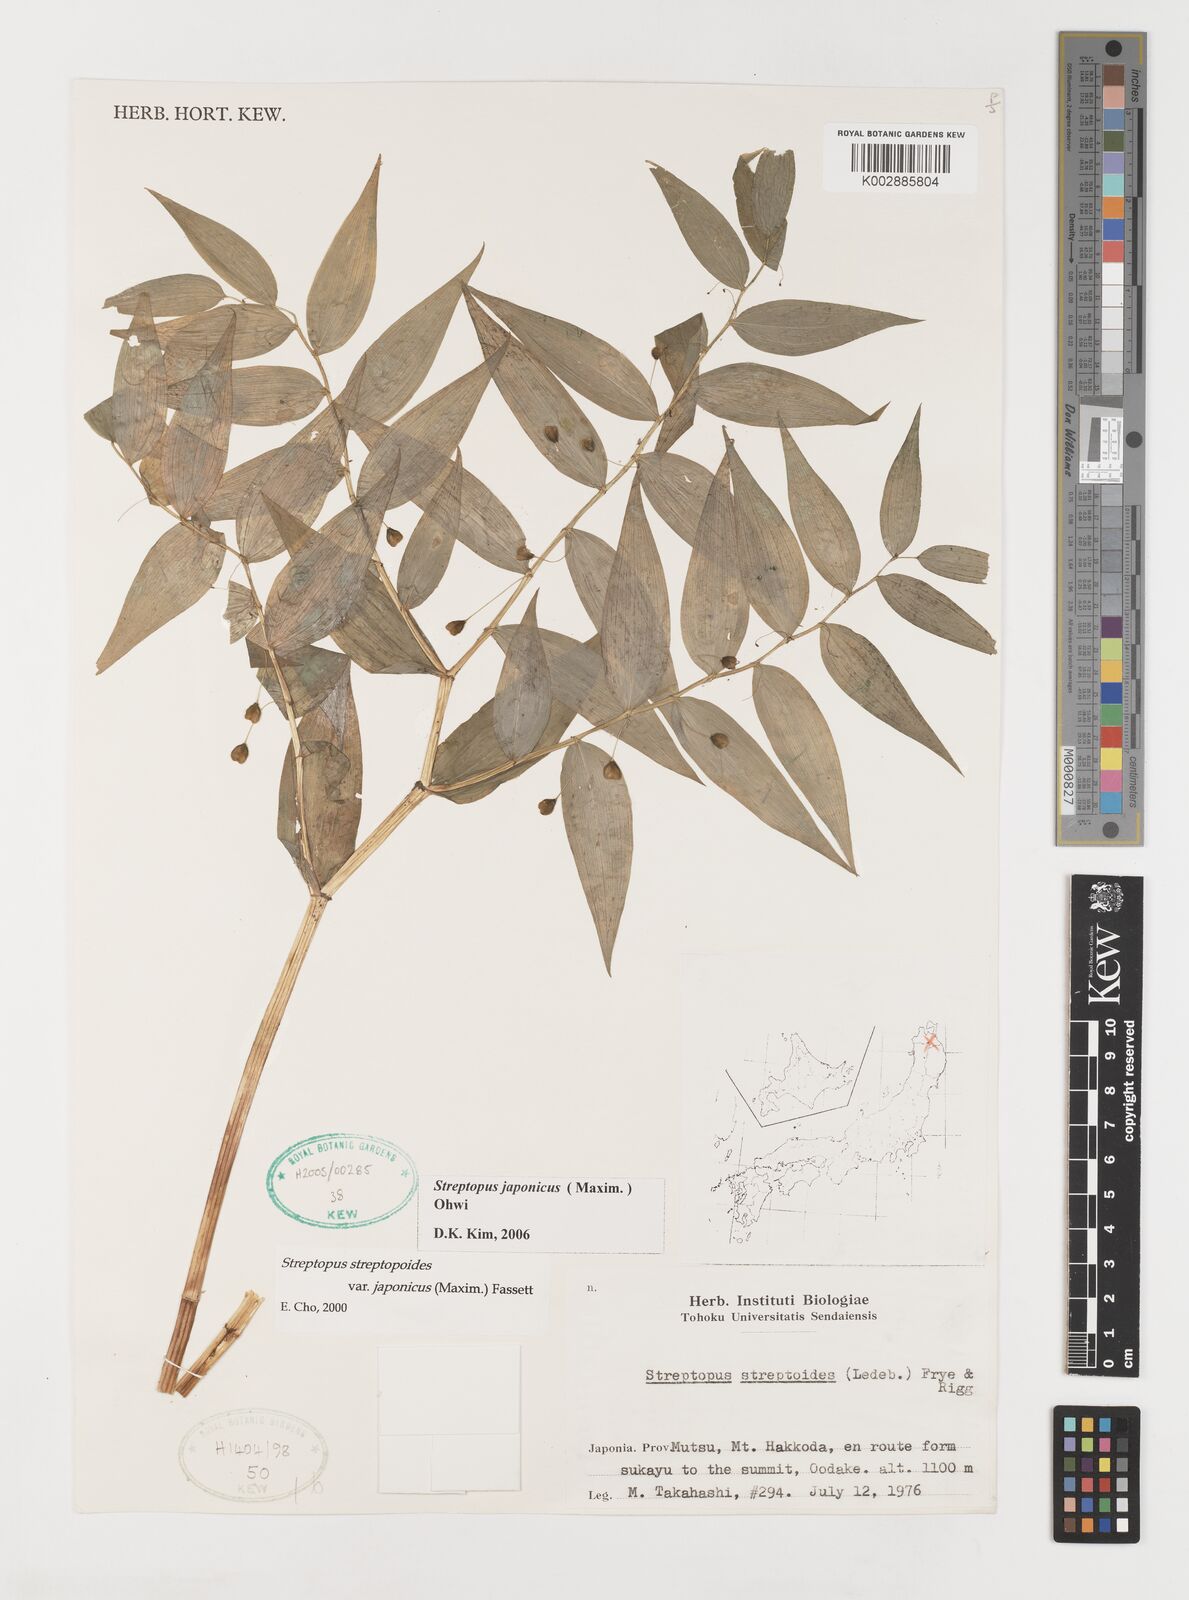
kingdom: Plantae
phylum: Tracheophyta
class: Liliopsida
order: Liliales
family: Liliaceae
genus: Streptopus
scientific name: Streptopus streptopoides
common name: Small twisted-stalk
